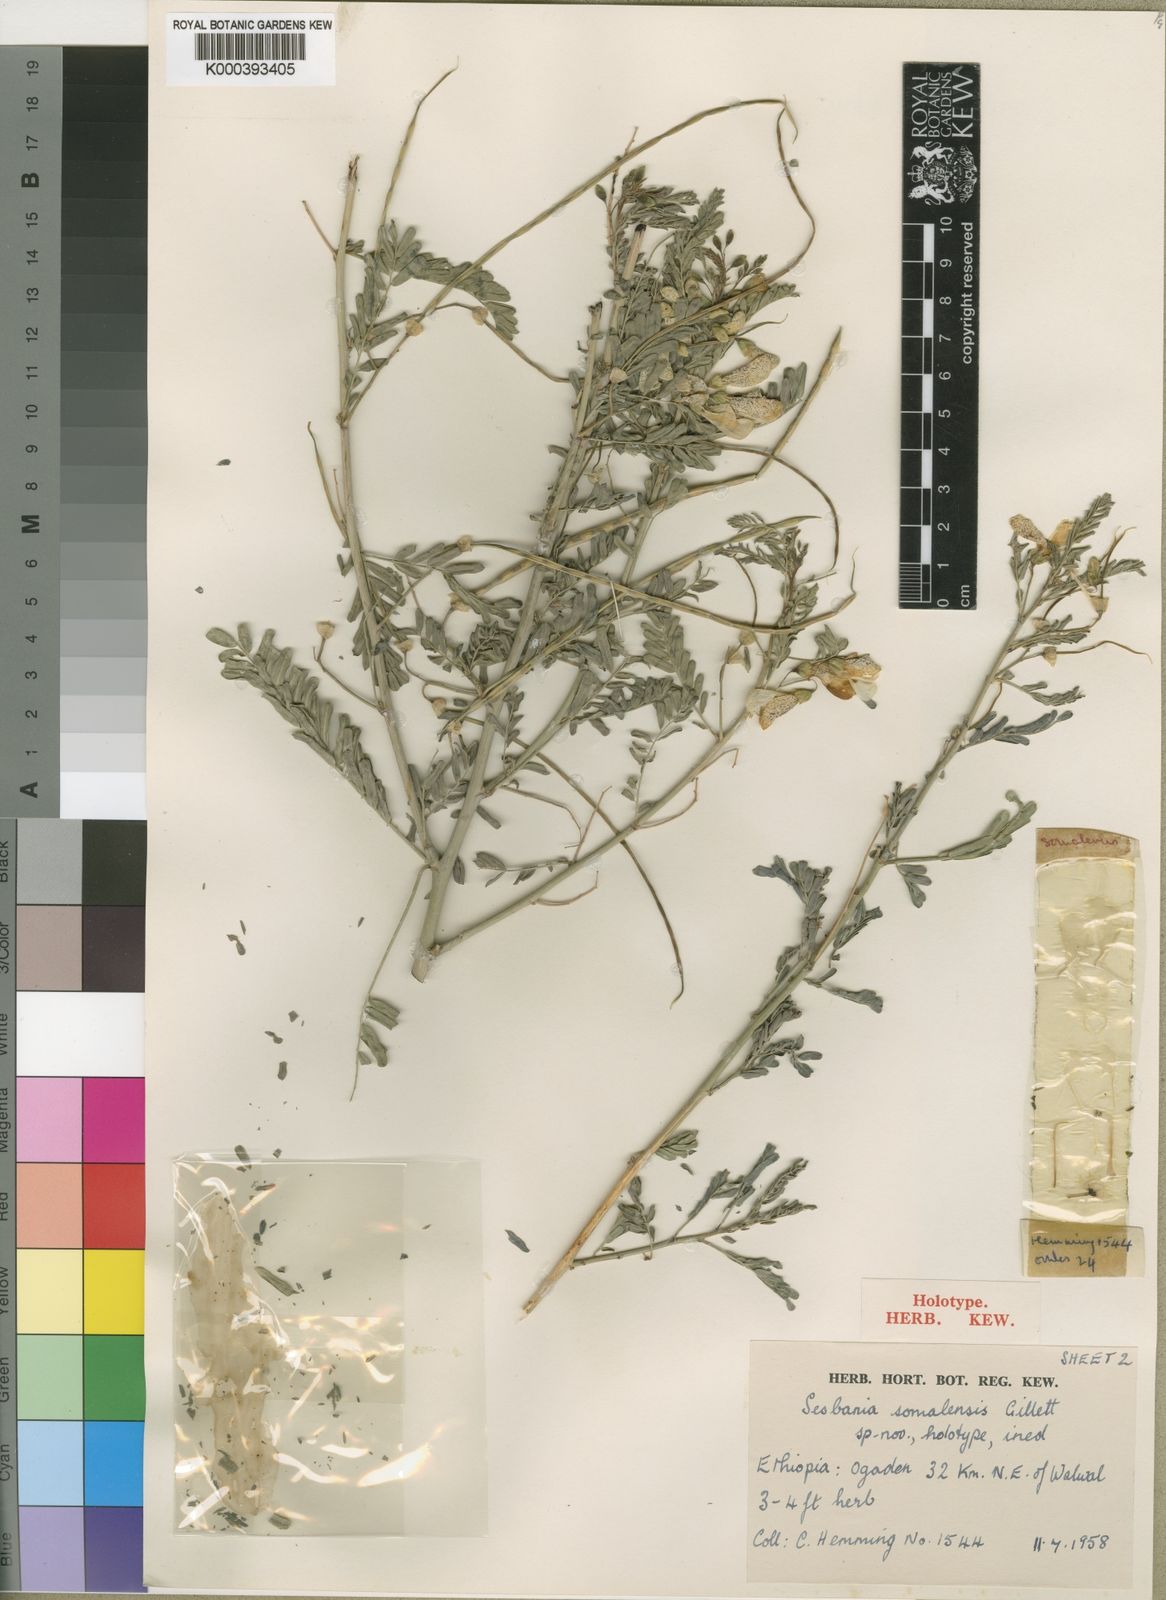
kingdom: Plantae
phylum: Tracheophyta
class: Magnoliopsida
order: Fabales
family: Fabaceae
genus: Sesbania
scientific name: Sesbania somalensis
